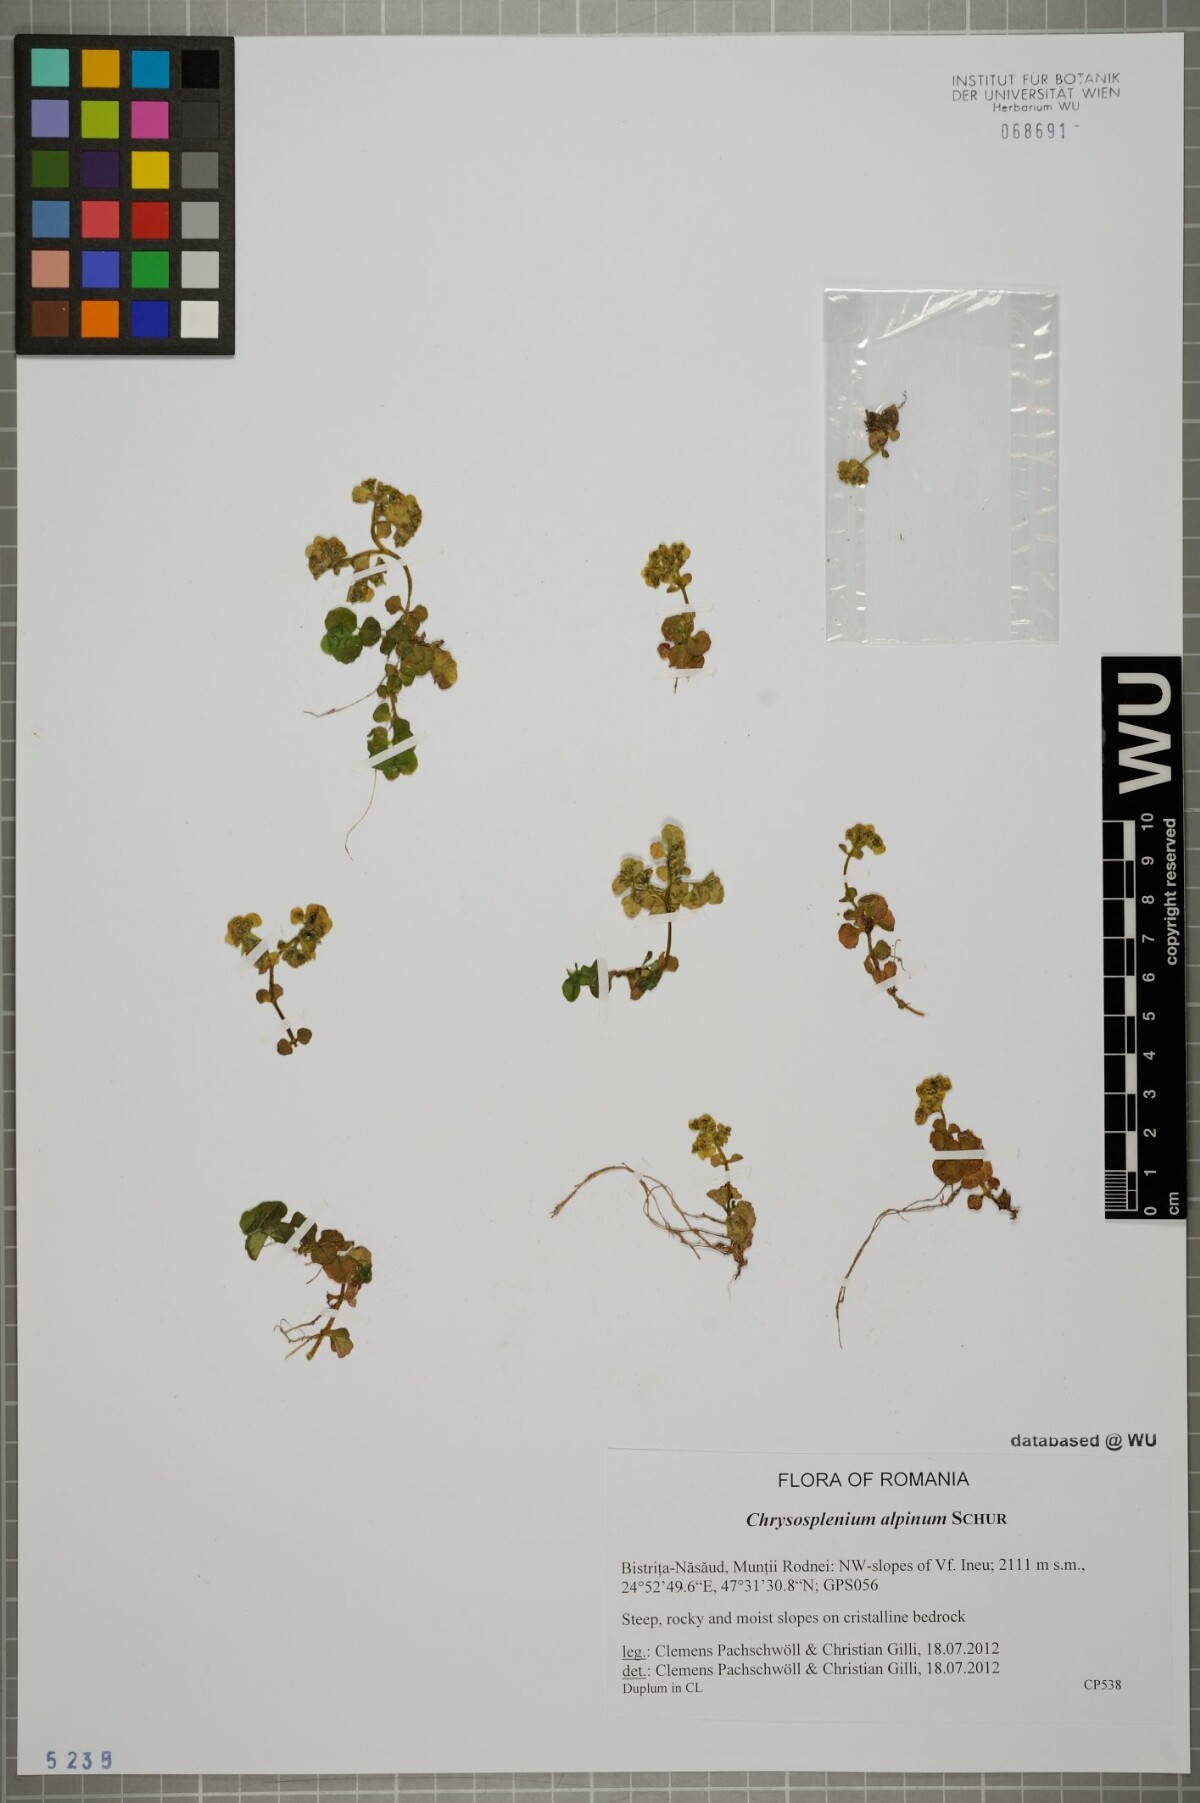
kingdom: Plantae
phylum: Tracheophyta
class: Magnoliopsida
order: Saxifragales
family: Saxifragaceae
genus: Chrysosplenium
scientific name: Chrysosplenium alpinum
